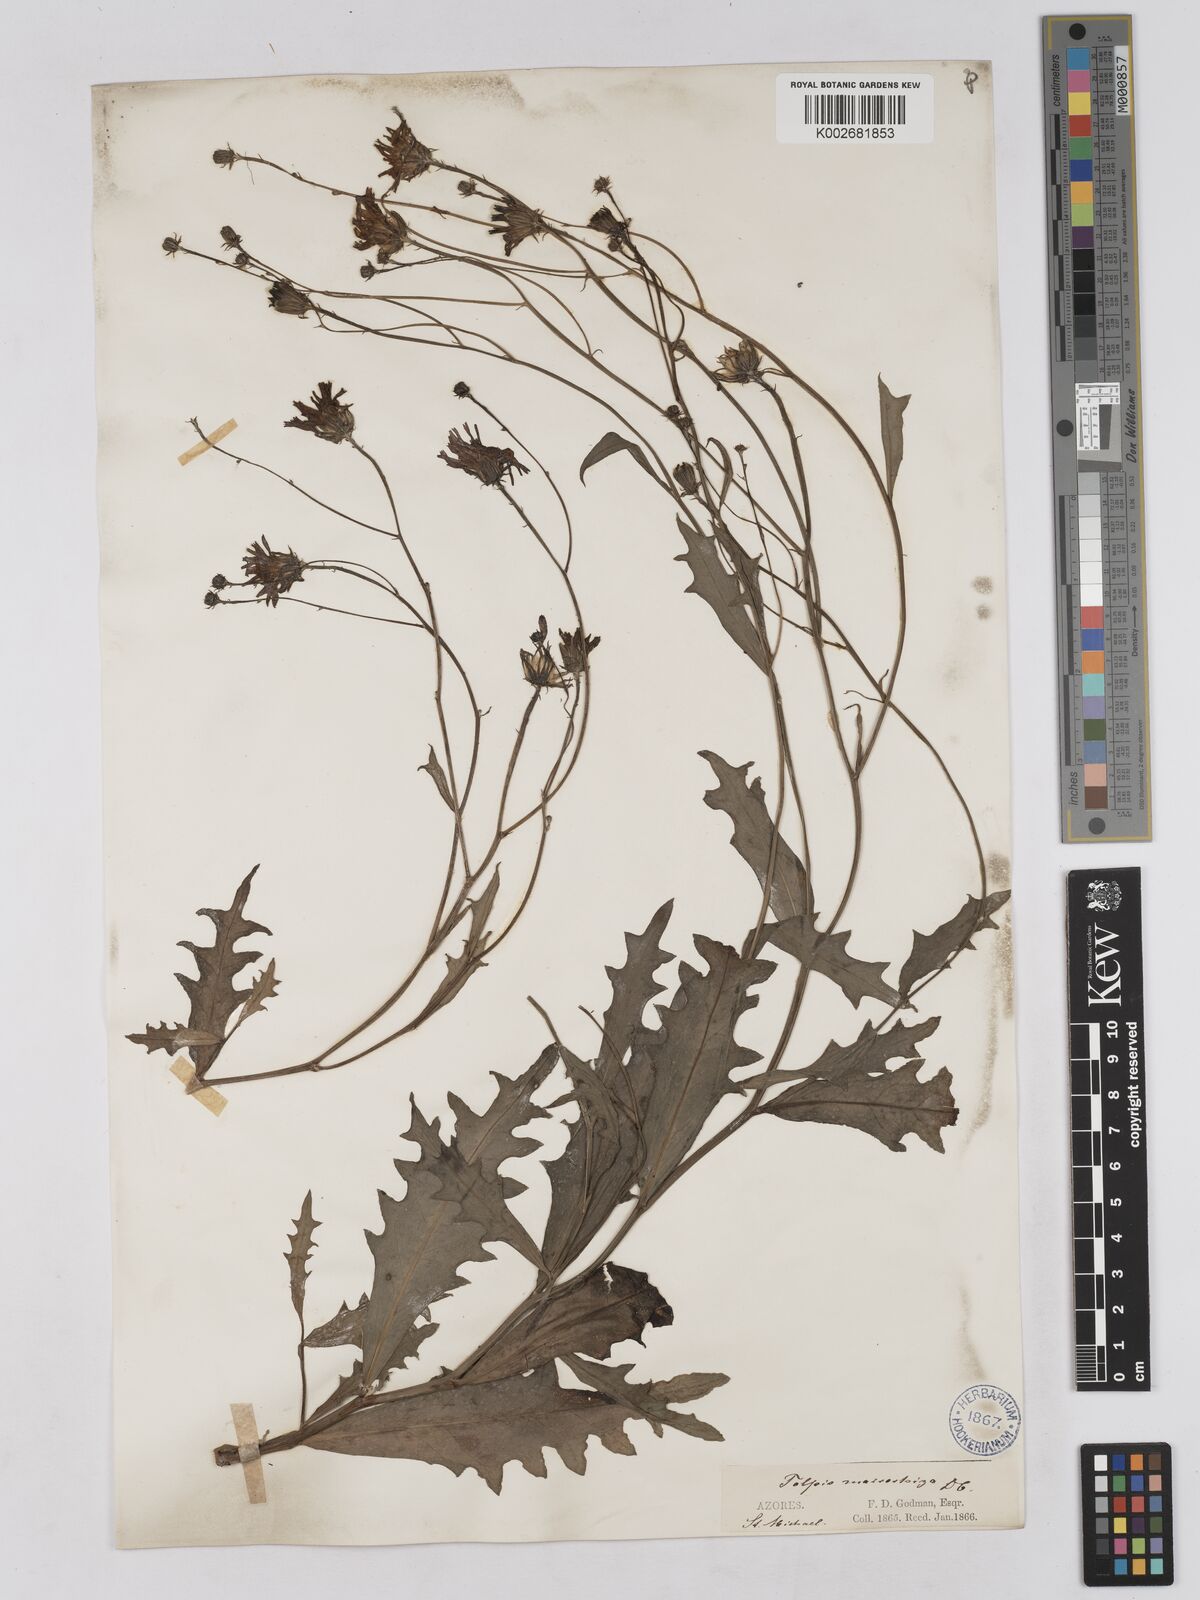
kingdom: Plantae
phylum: Tracheophyta
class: Magnoliopsida
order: Asterales
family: Asteraceae
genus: Tolpis
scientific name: Tolpis nobilis
